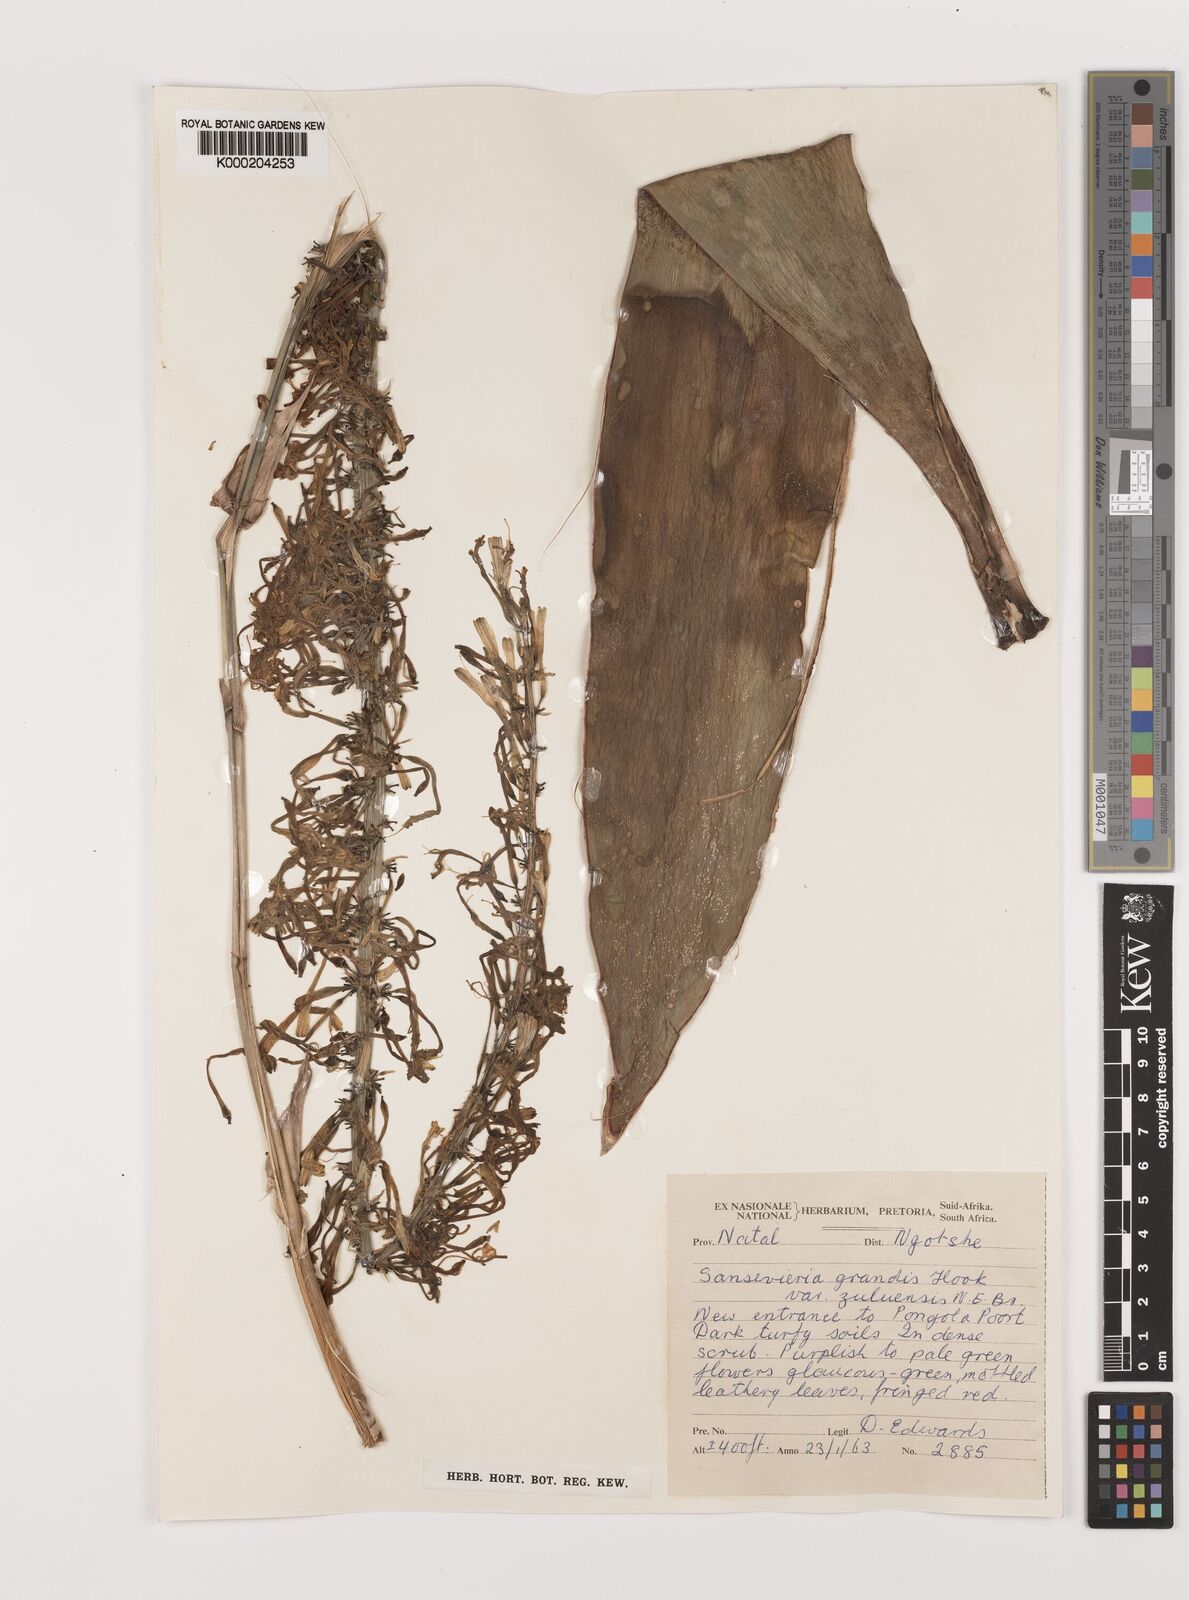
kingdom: Plantae
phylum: Tracheophyta
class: Liliopsida
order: Asparagales
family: Asparagaceae
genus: Dracaena
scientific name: Dracaena hyacinthoides
